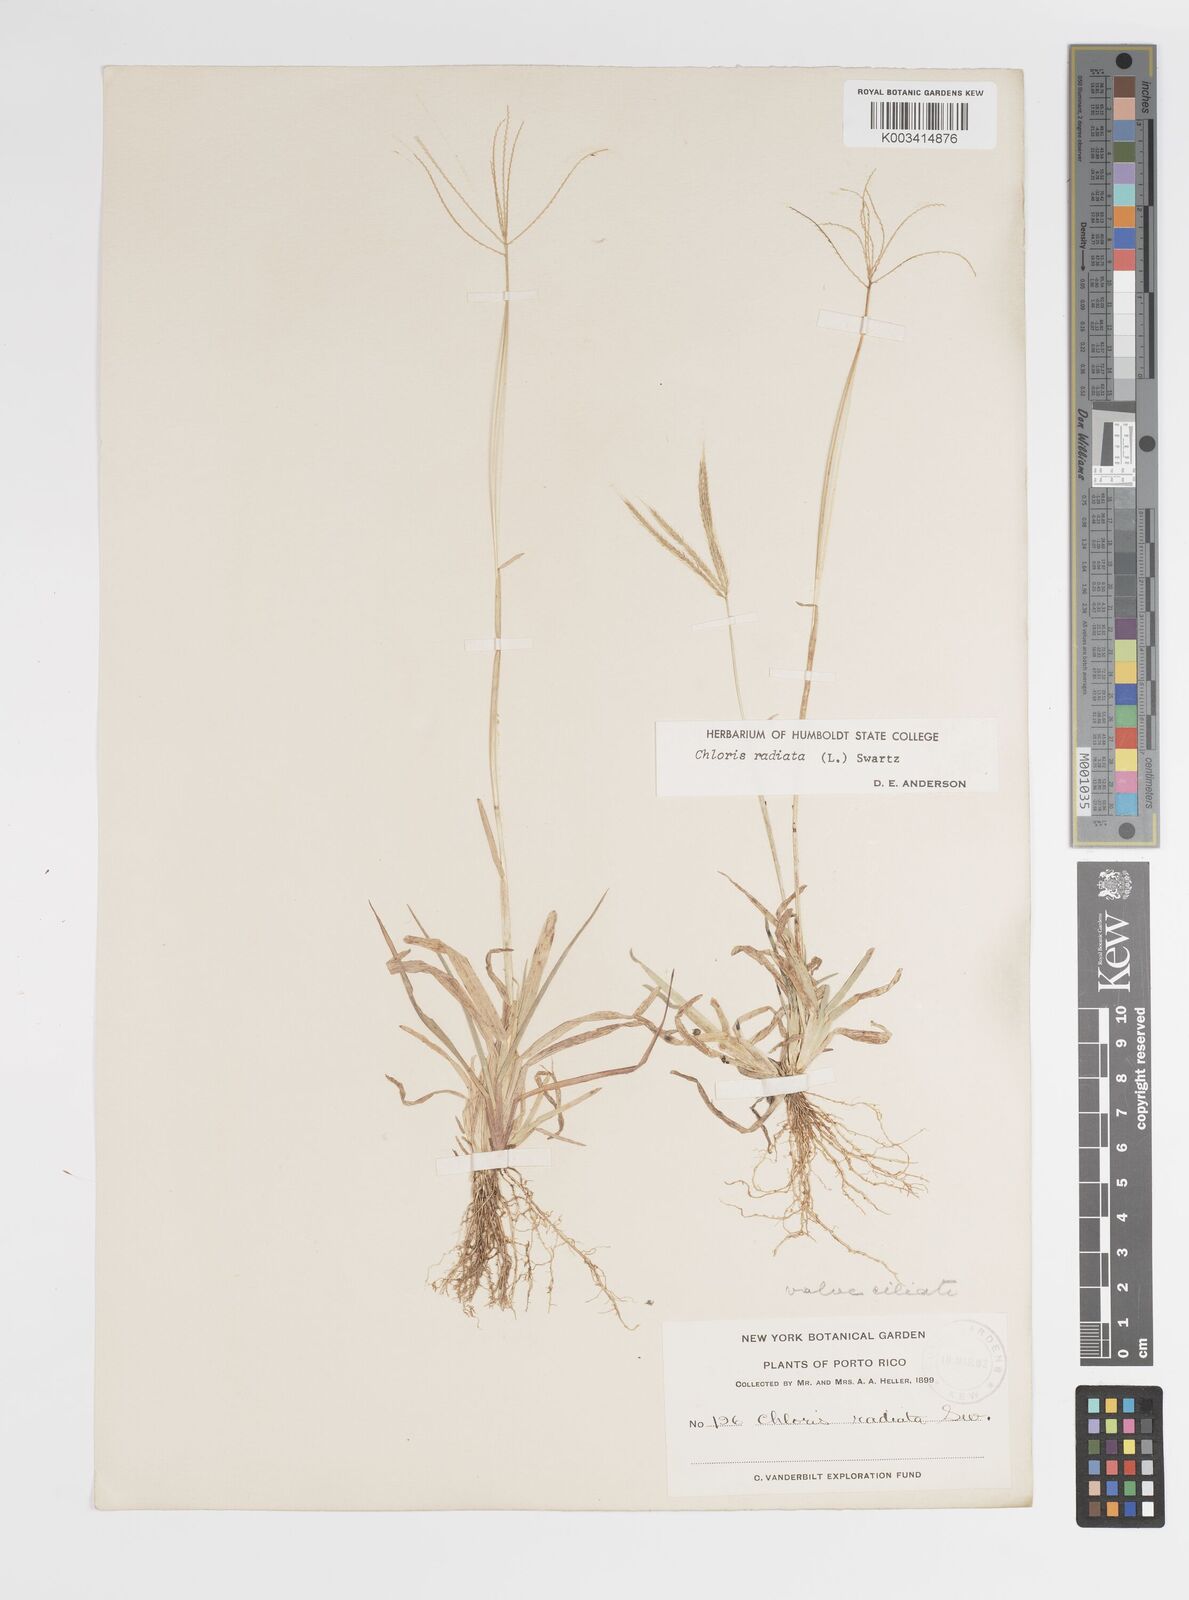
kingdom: Plantae
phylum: Tracheophyta
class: Liliopsida
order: Poales
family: Poaceae
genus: Chloris
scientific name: Chloris radiata
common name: Radiate fingergrass
